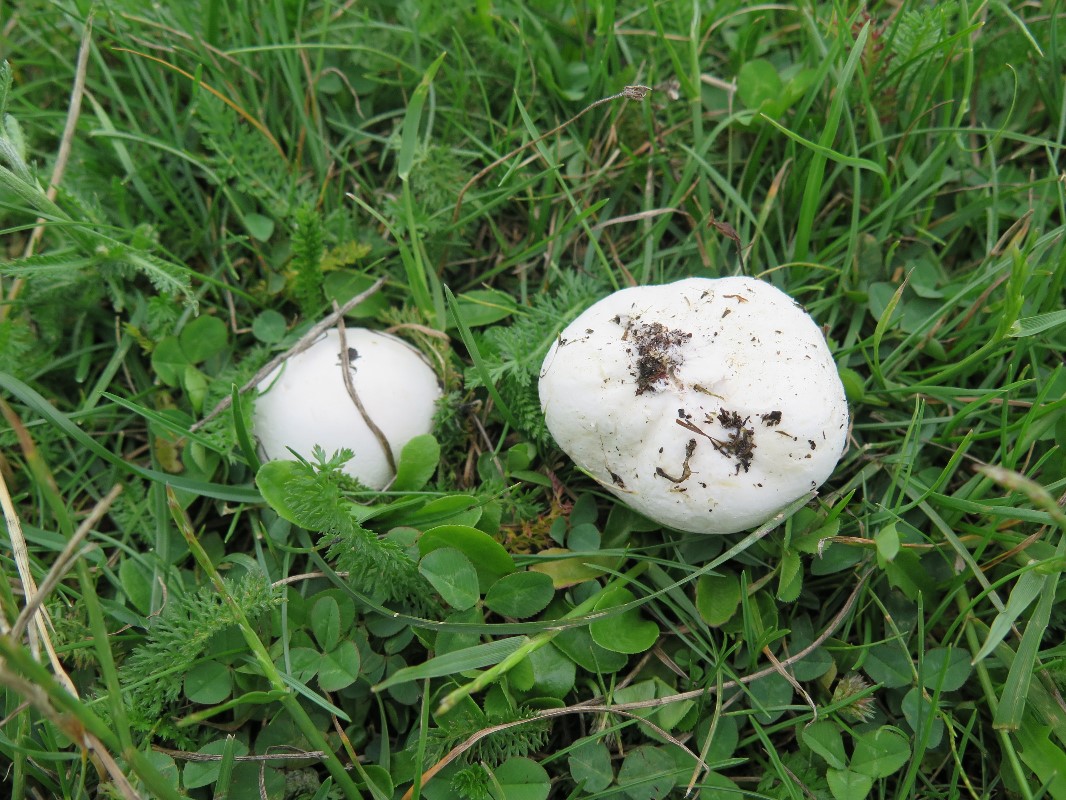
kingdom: Fungi
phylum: Basidiomycota
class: Agaricomycetes
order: Agaricales
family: Lycoperdaceae
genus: Lycoperdon
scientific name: Lycoperdon pratense
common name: flad støvbold
